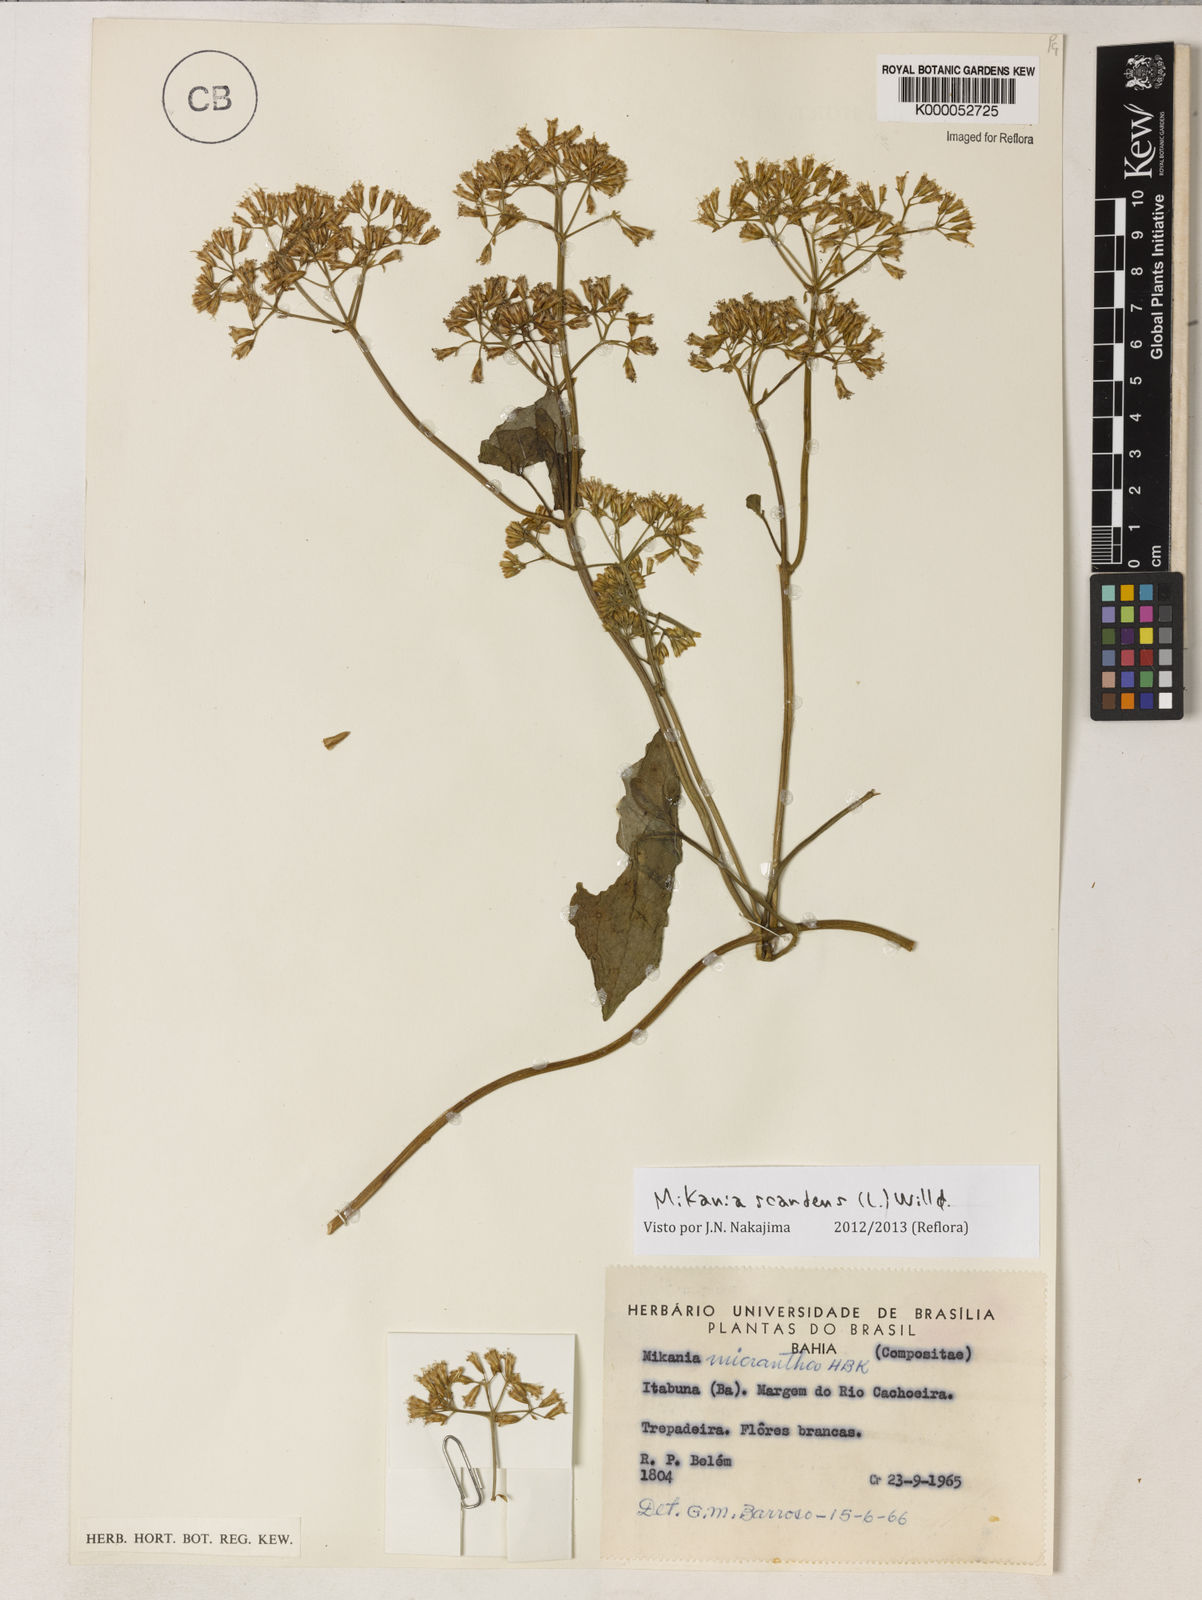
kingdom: Plantae
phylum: Tracheophyta
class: Magnoliopsida
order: Asterales
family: Asteraceae
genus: Mikania
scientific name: Mikania scandens
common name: Climbing hempvine
